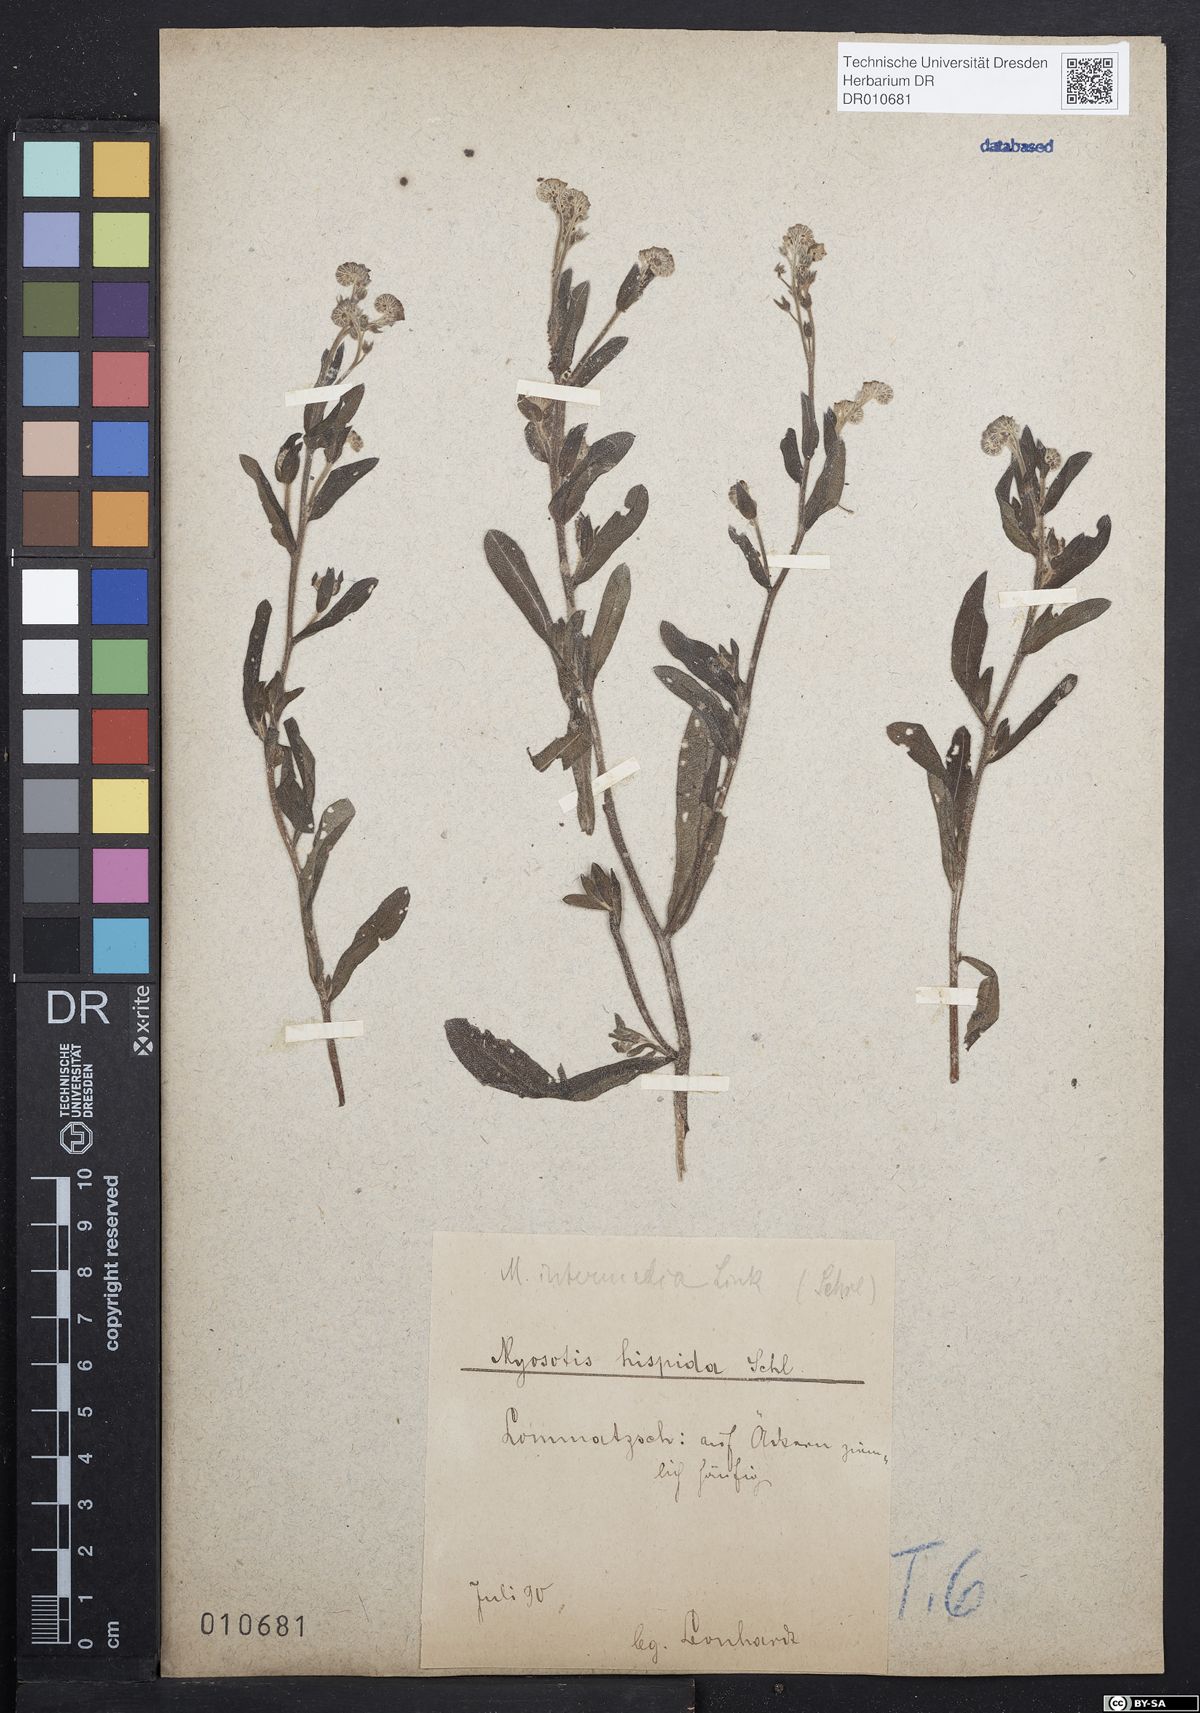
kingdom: Plantae
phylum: Tracheophyta
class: Magnoliopsida
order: Boraginales
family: Boraginaceae
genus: Myosotis
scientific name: Myosotis arvensis
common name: Field forget-me-not
